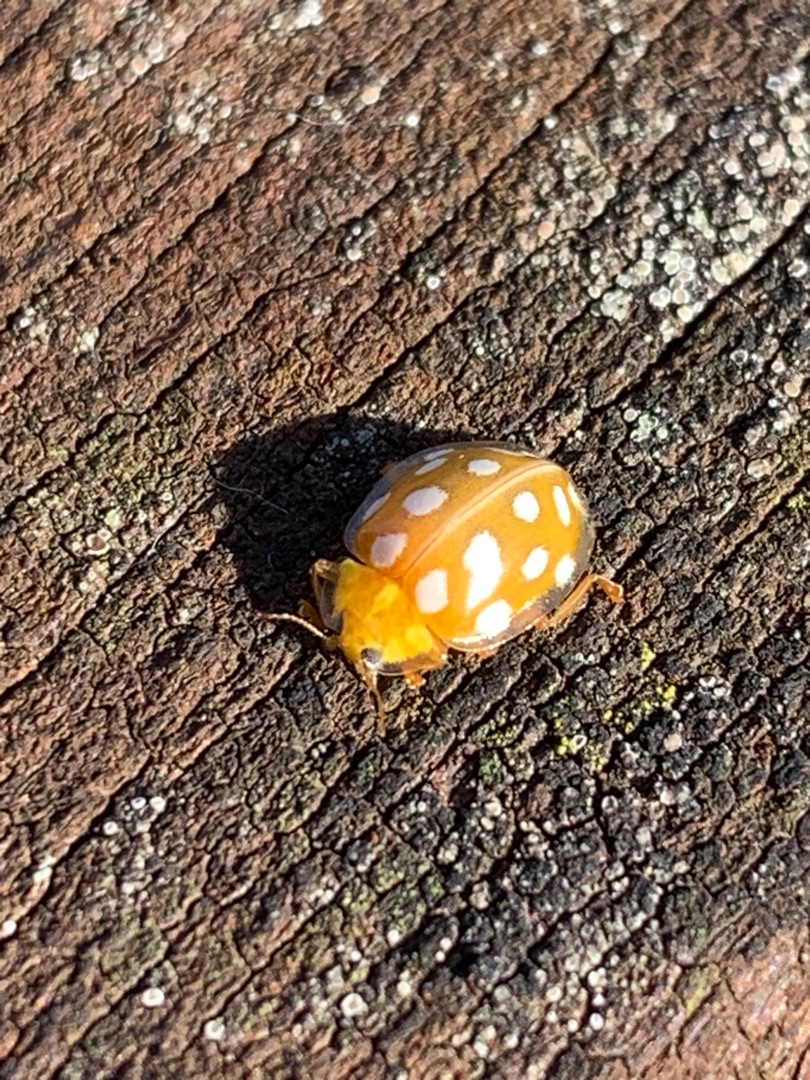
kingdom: Animalia
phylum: Arthropoda
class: Insecta
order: Coleoptera
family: Coccinellidae
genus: Halyzia
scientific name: Halyzia sedecimguttata
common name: Sekstenplettet mariehøne
